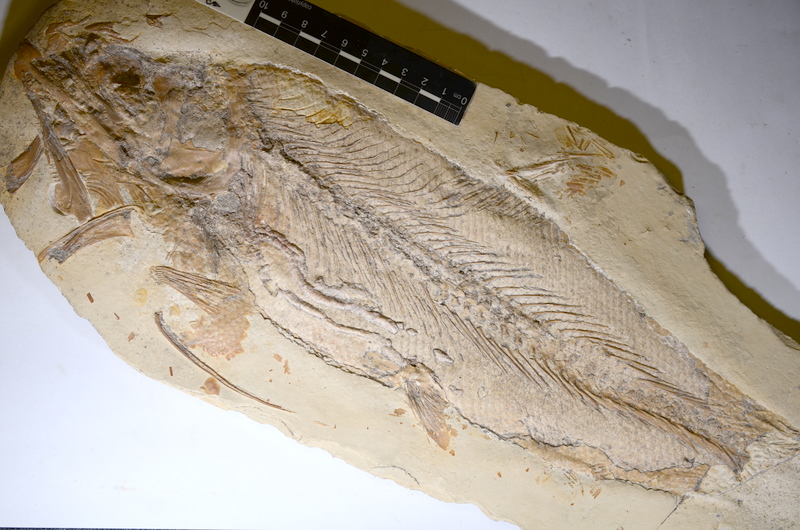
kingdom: Animalia
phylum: Chordata
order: Amiiformes
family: Caturidae
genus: Caturus
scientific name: Caturus furcatus
